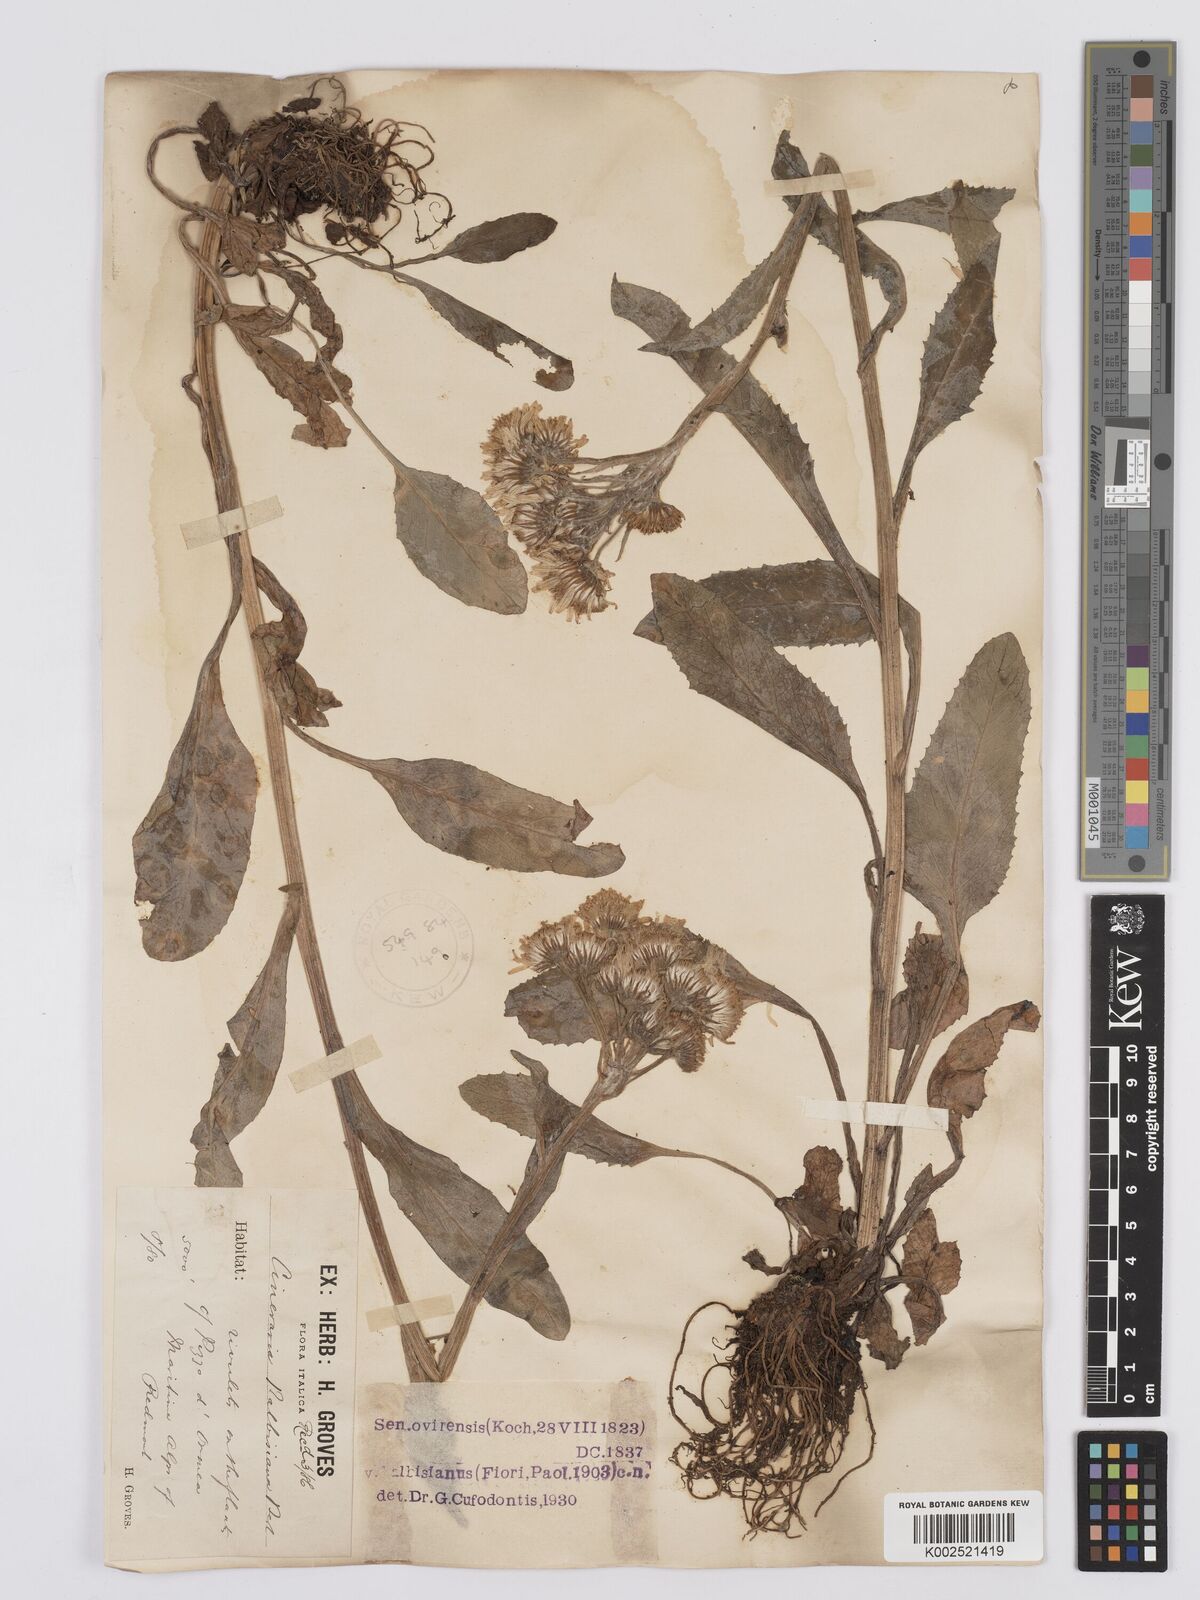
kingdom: Plantae
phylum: Tracheophyta
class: Magnoliopsida
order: Asterales
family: Asteraceae
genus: Tephroseris
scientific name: Tephroseris balbisiana
